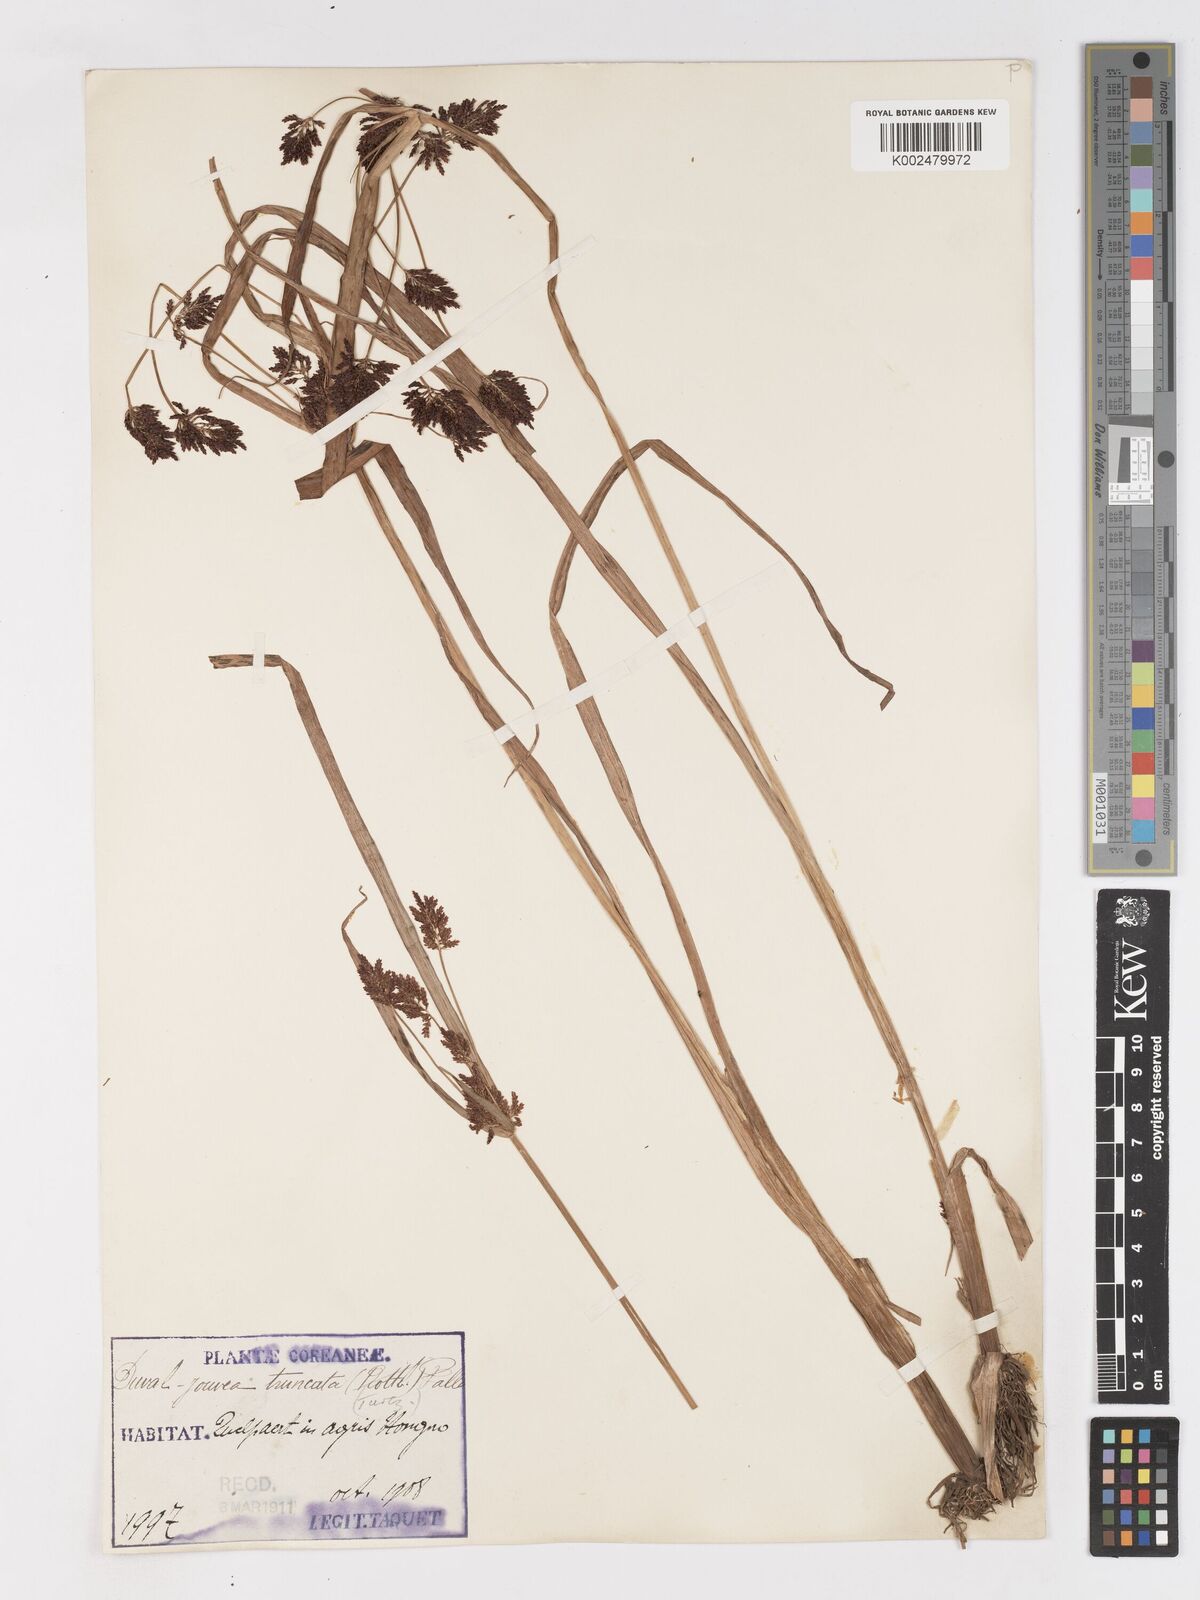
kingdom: Plantae
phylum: Tracheophyta
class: Liliopsida
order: Poales
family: Cyperaceae
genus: Cyperus
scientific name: Cyperus orthostachyus
